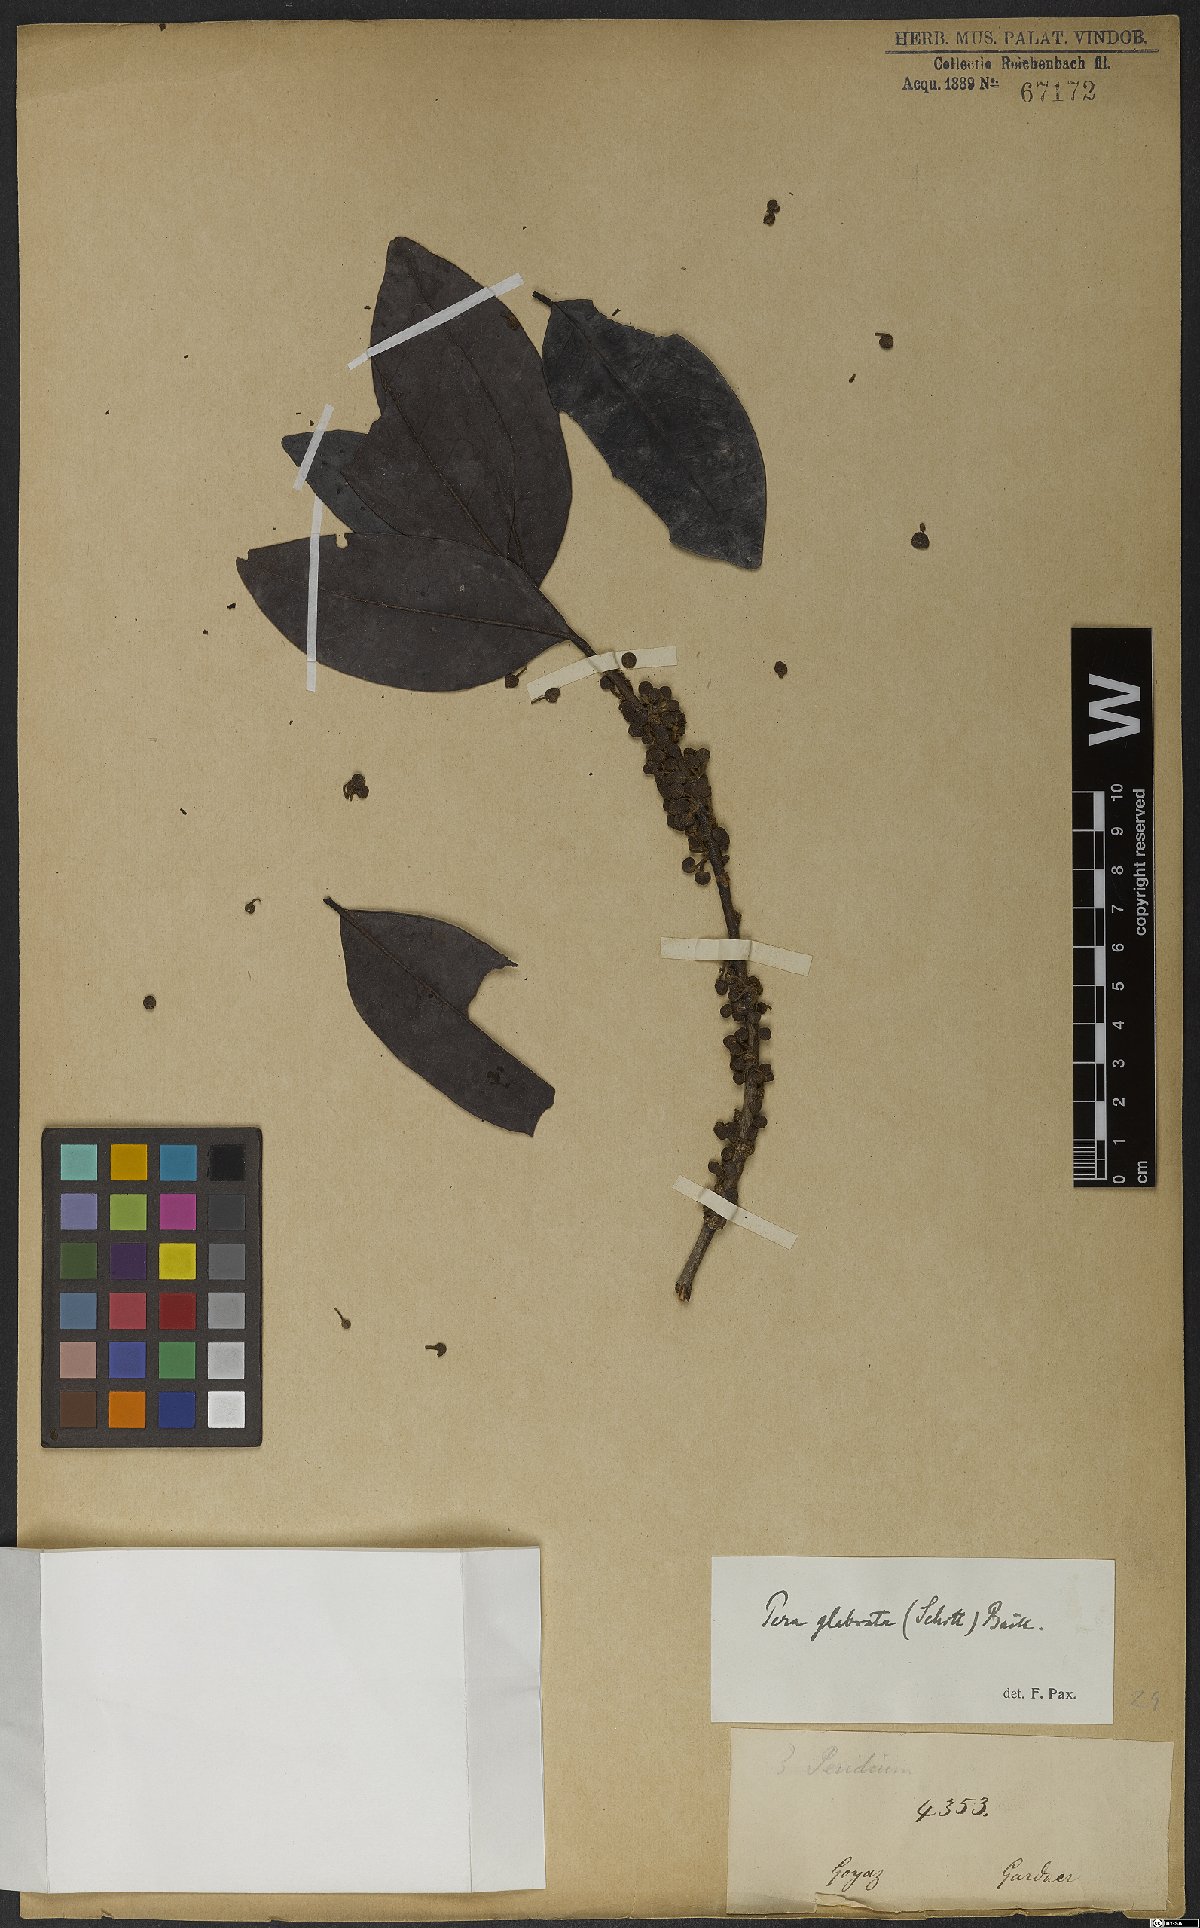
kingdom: Plantae
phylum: Tracheophyta
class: Magnoliopsida
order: Malpighiales
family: Peraceae
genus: Pera
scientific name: Pera glabrata
